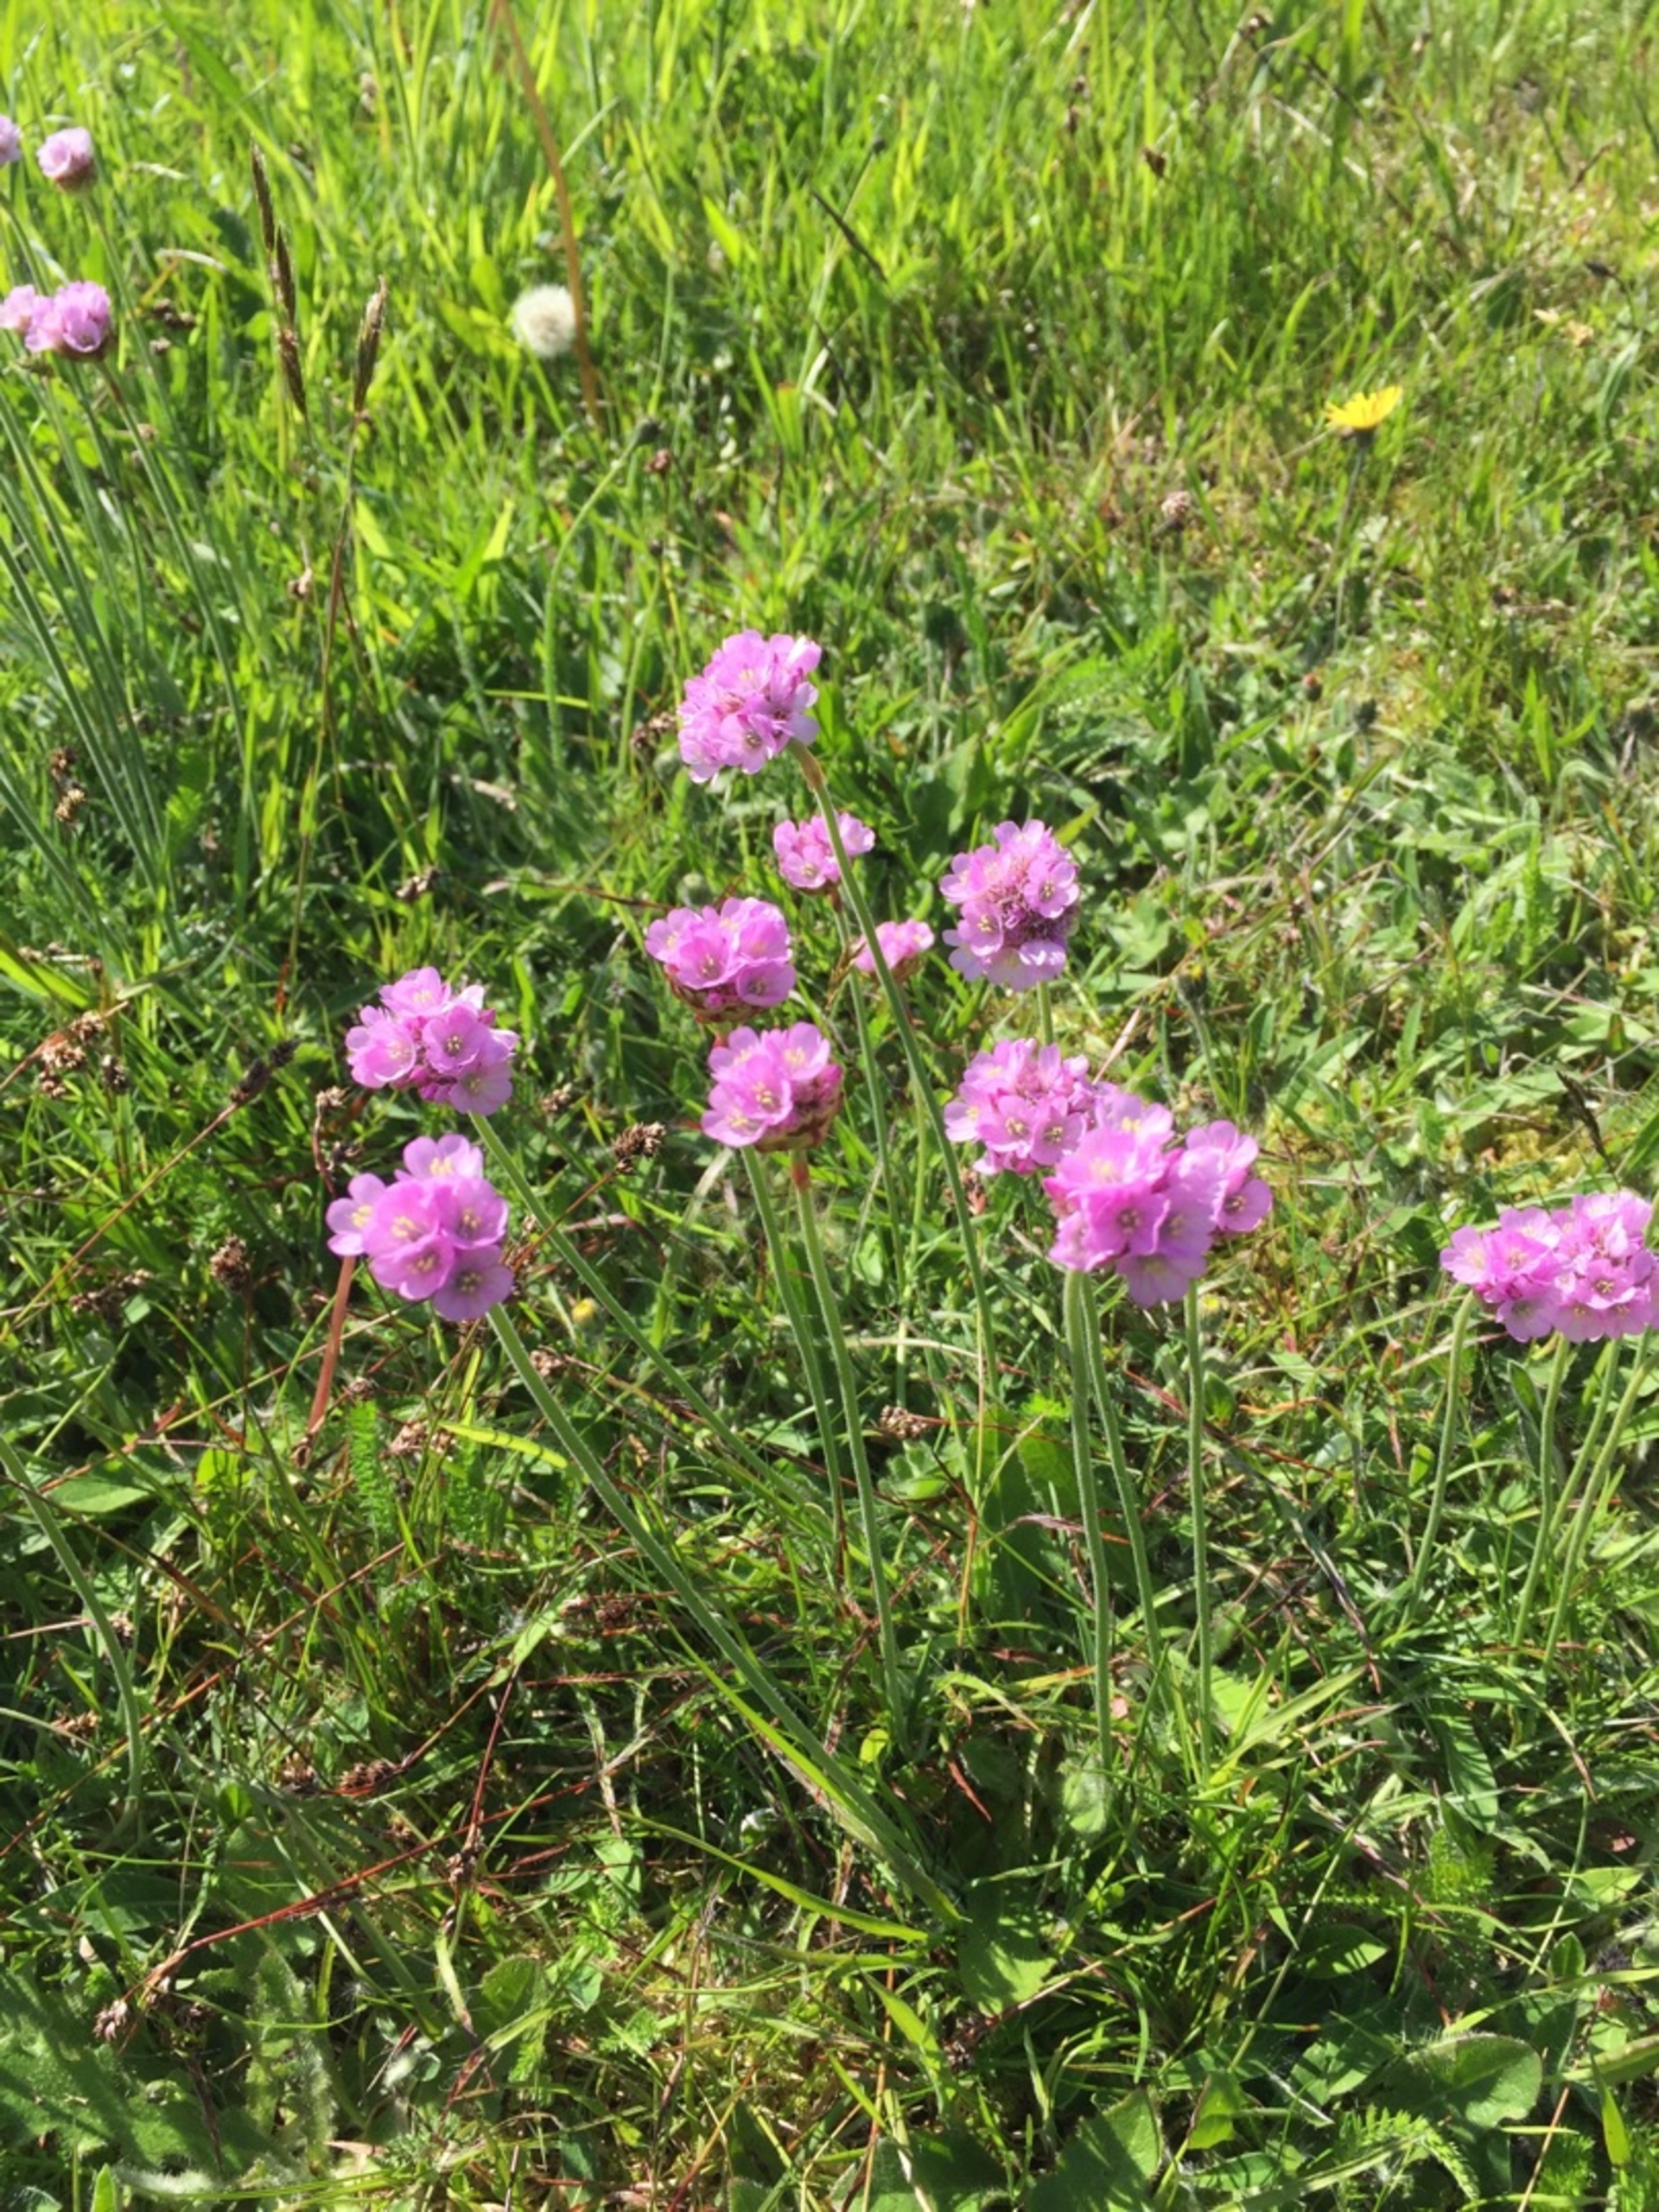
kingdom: Plantae
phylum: Tracheophyta
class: Magnoliopsida
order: Caryophyllales
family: Plumbaginaceae
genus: Armeria
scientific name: Armeria maritima
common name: Engelskgræs
